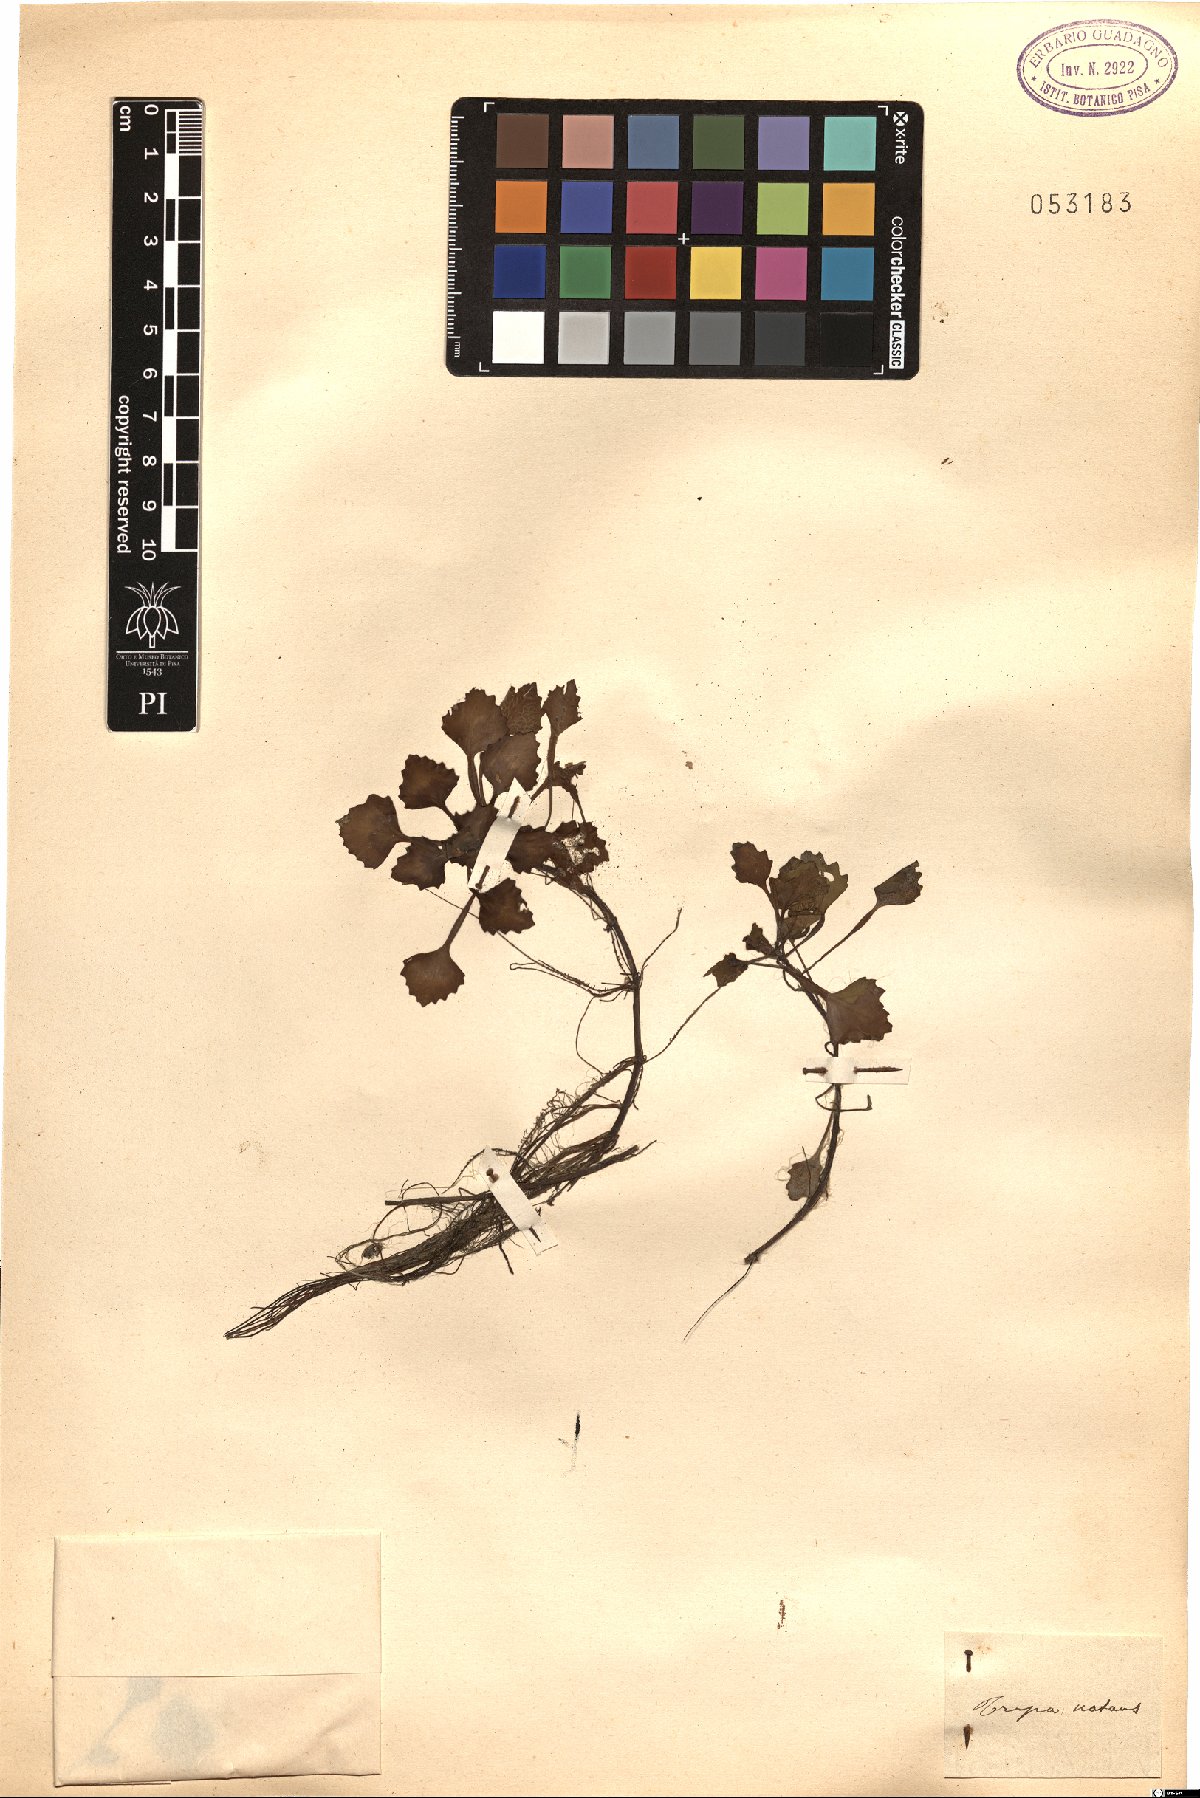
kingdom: Plantae
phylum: Tracheophyta
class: Magnoliopsida
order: Myrtales
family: Lythraceae
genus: Trapa
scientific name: Trapa natans
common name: Water chestnut
